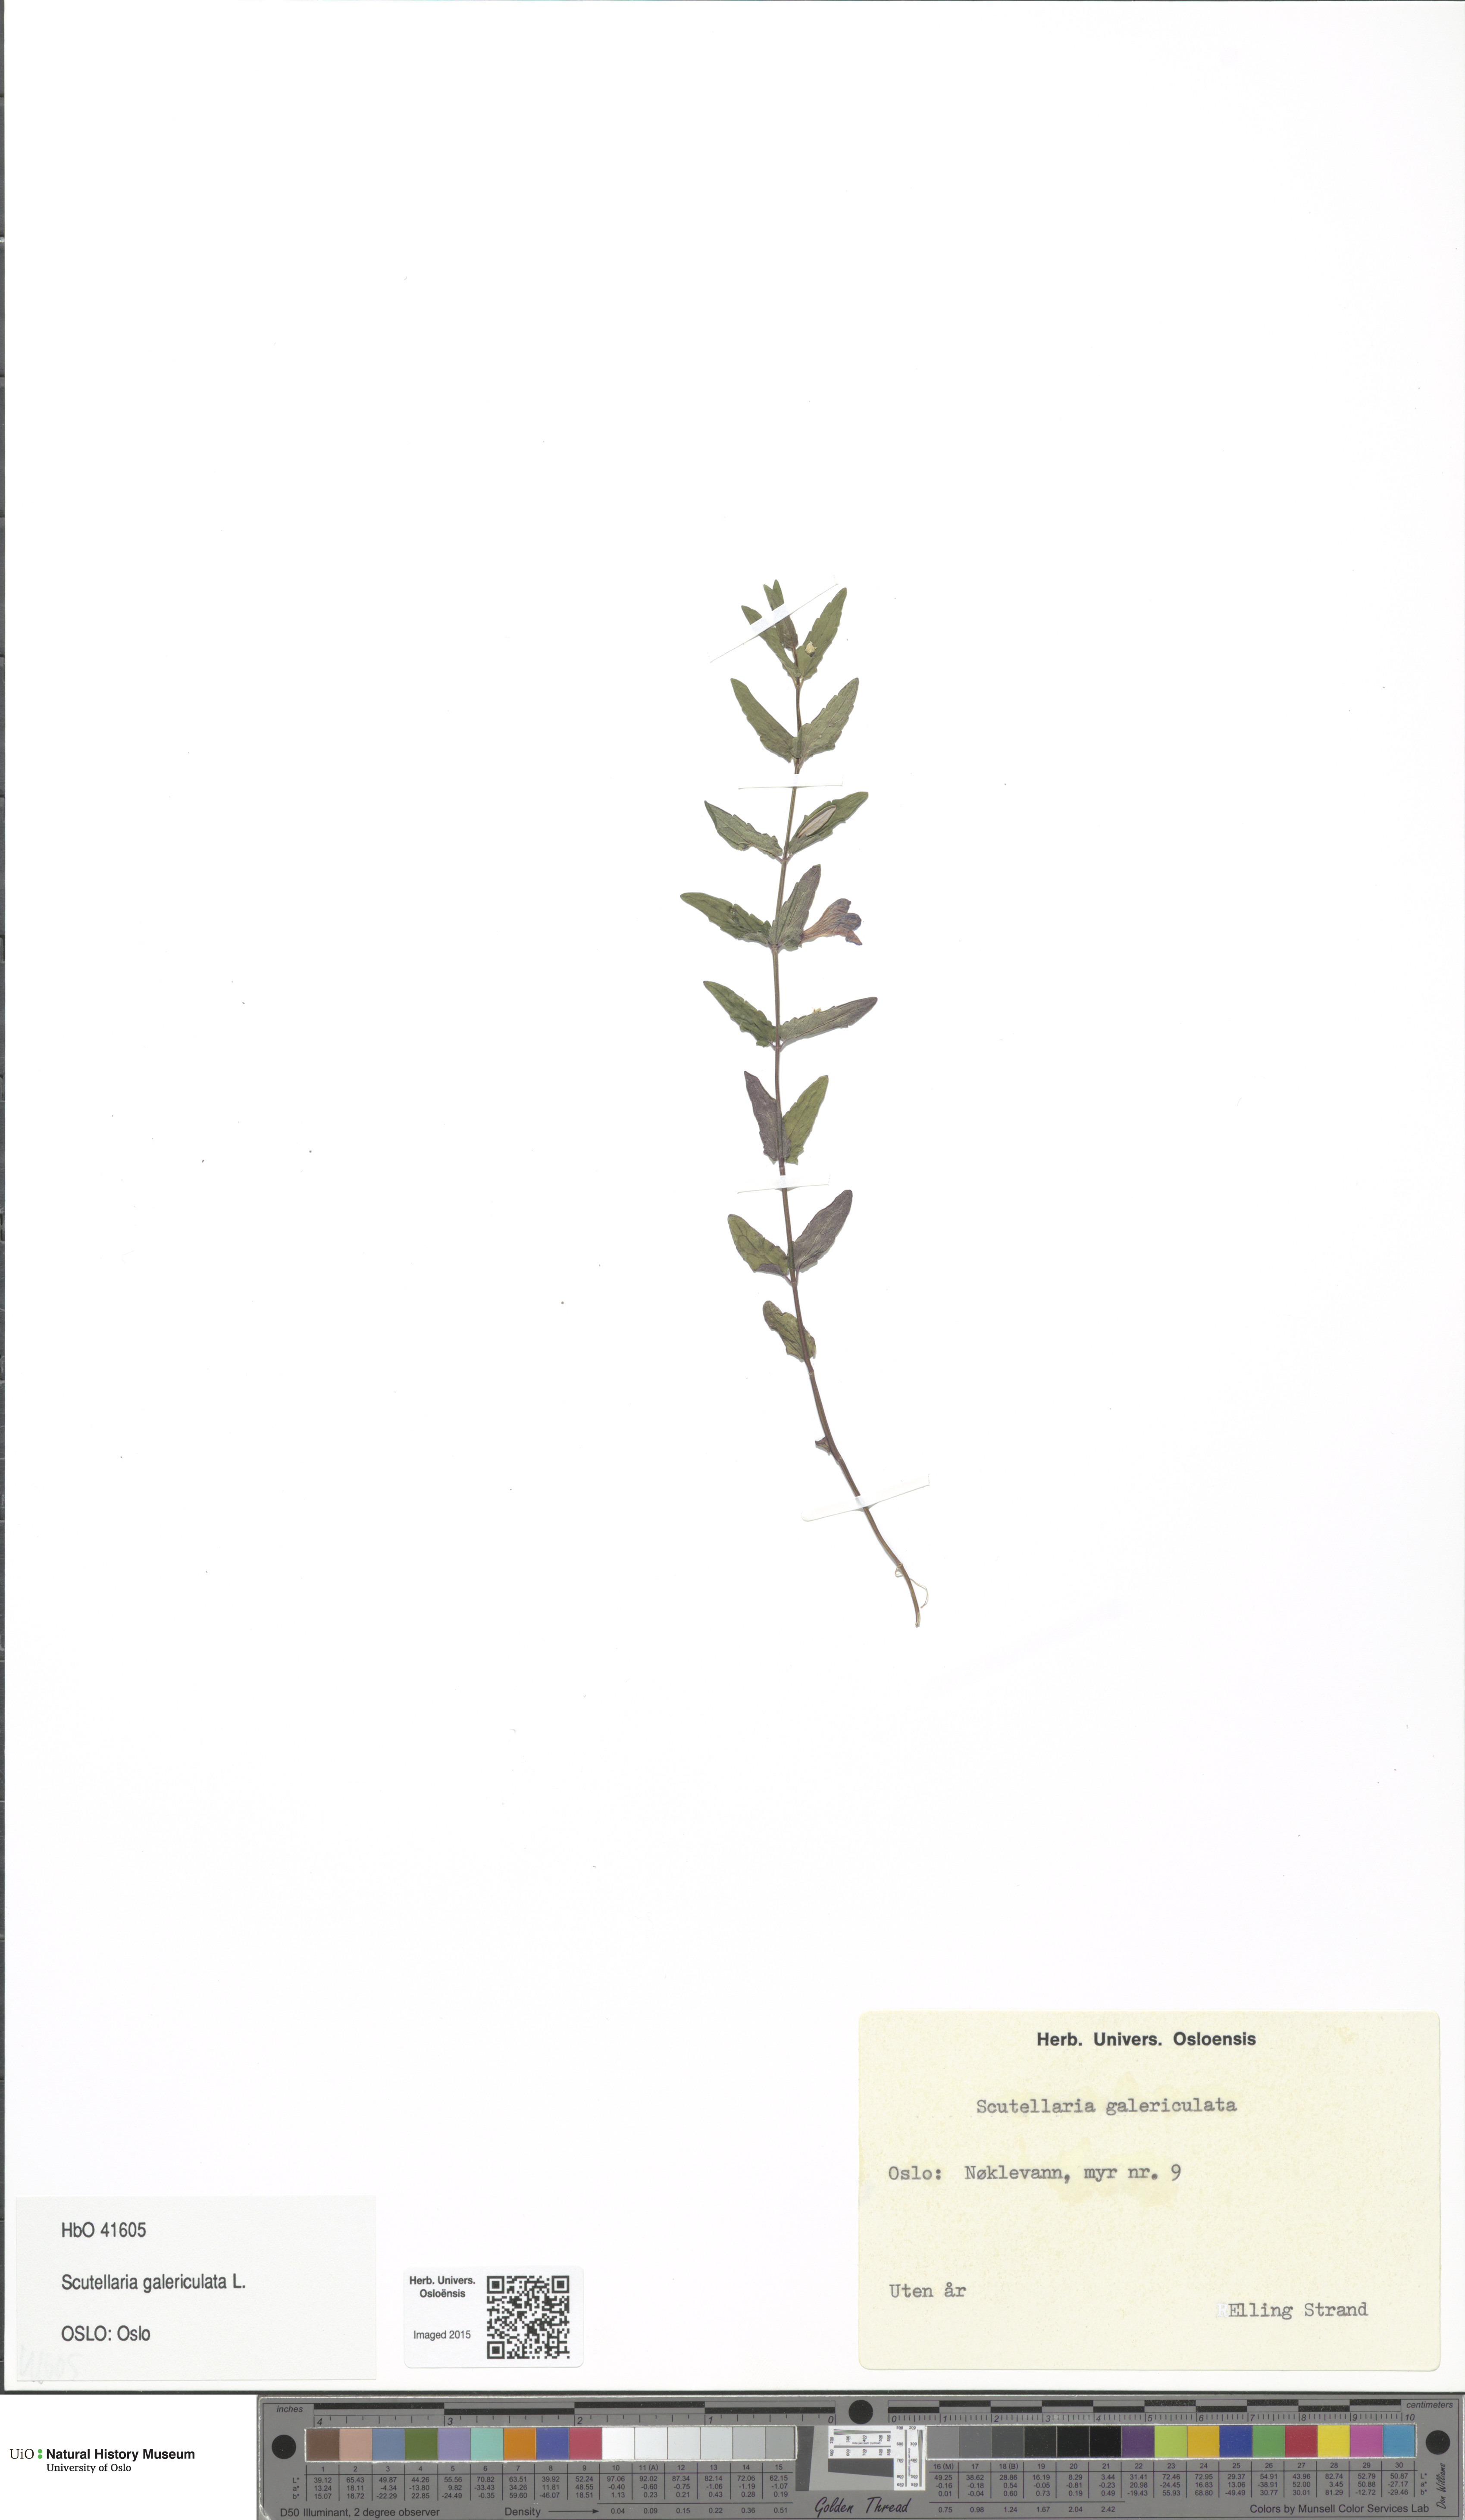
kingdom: Plantae
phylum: Tracheophyta
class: Magnoliopsida
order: Lamiales
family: Lamiaceae
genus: Scutellaria
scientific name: Scutellaria galericulata
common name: Skullcap
